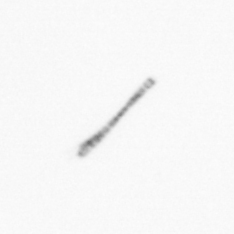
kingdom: Chromista
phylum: Ochrophyta
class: Bacillariophyceae
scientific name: Bacillariophyceae
